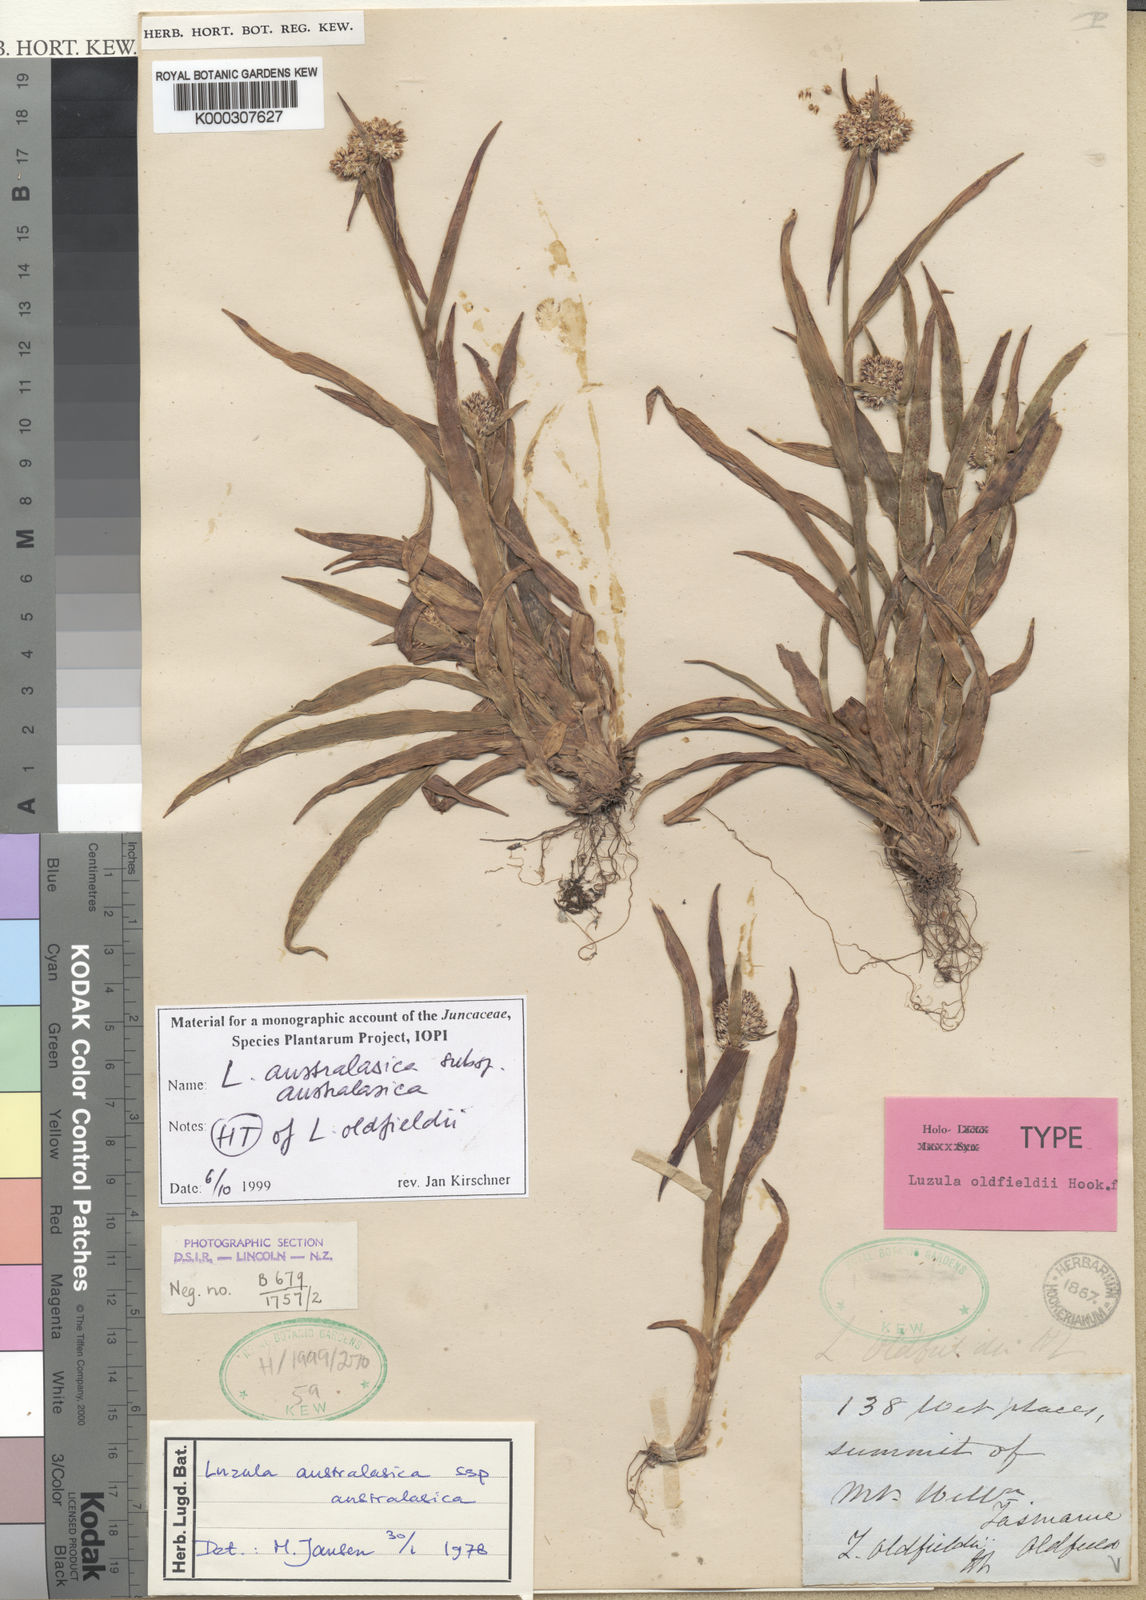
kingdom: Plantae
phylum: Tracheophyta
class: Liliopsida
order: Poales
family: Juncaceae
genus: Luzula
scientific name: Luzula australasica
